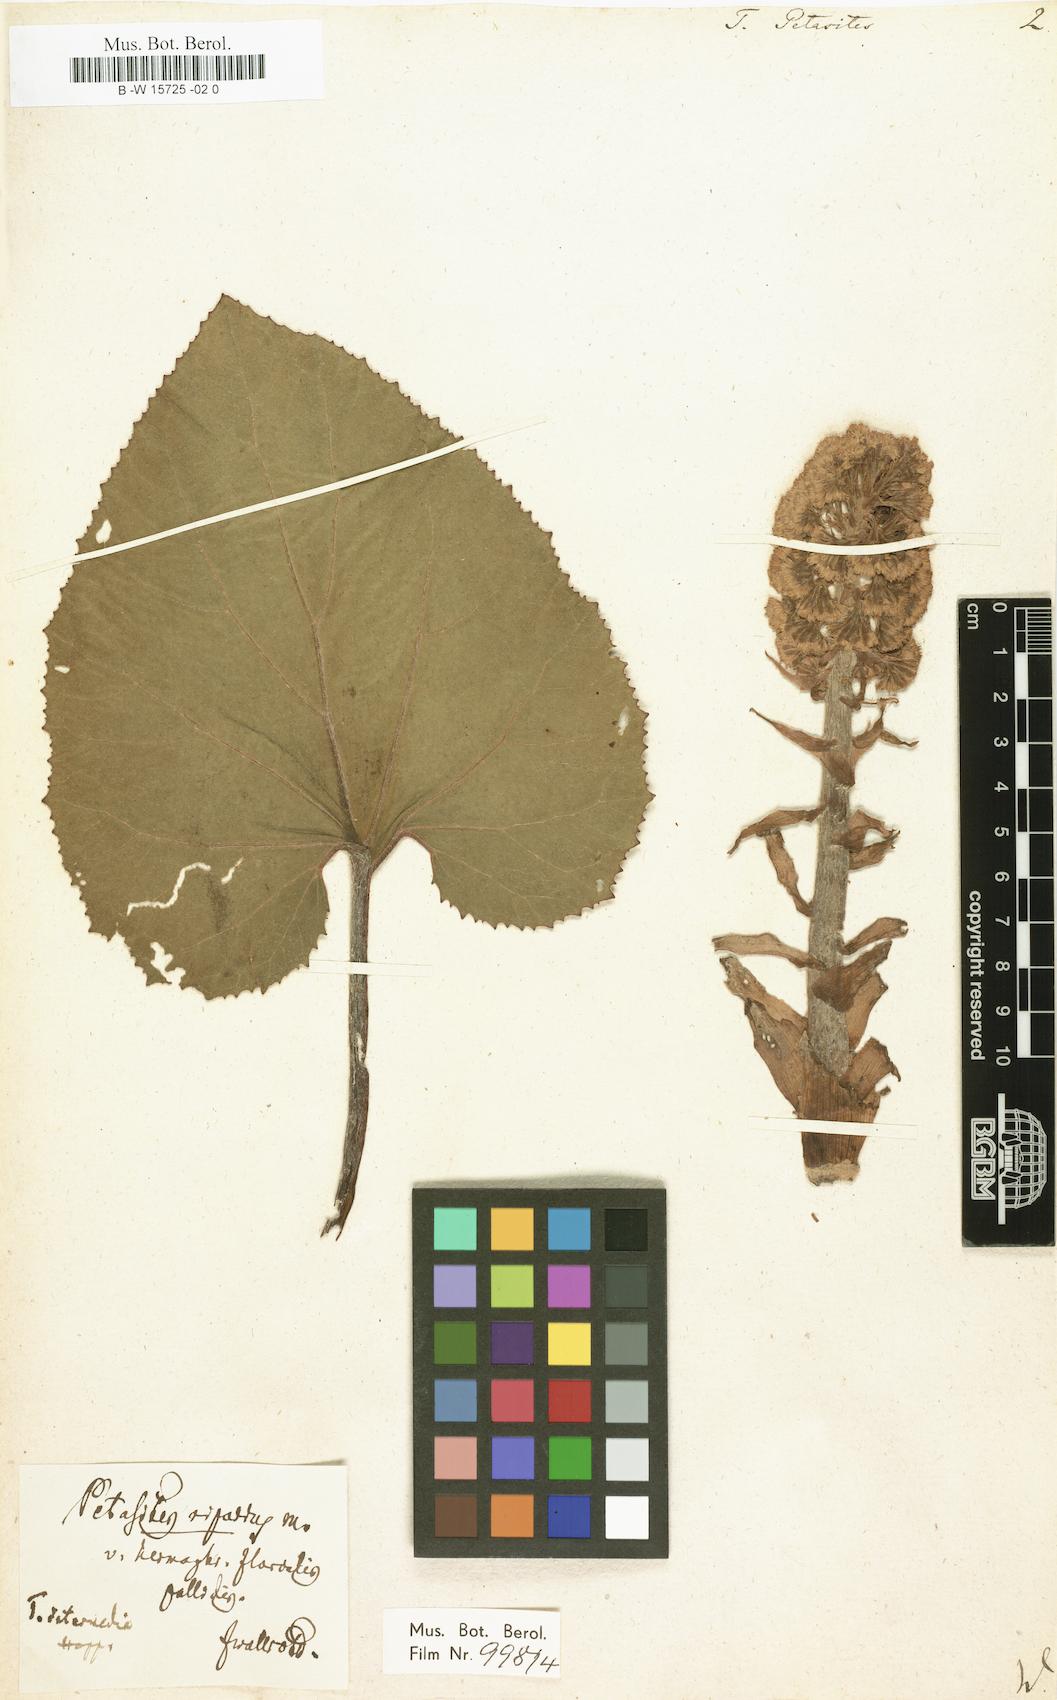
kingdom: Plantae
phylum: Tracheophyta
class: Magnoliopsida
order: Asterales
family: Asteraceae
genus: Petasites
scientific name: Petasites hybridus
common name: Butterbur
